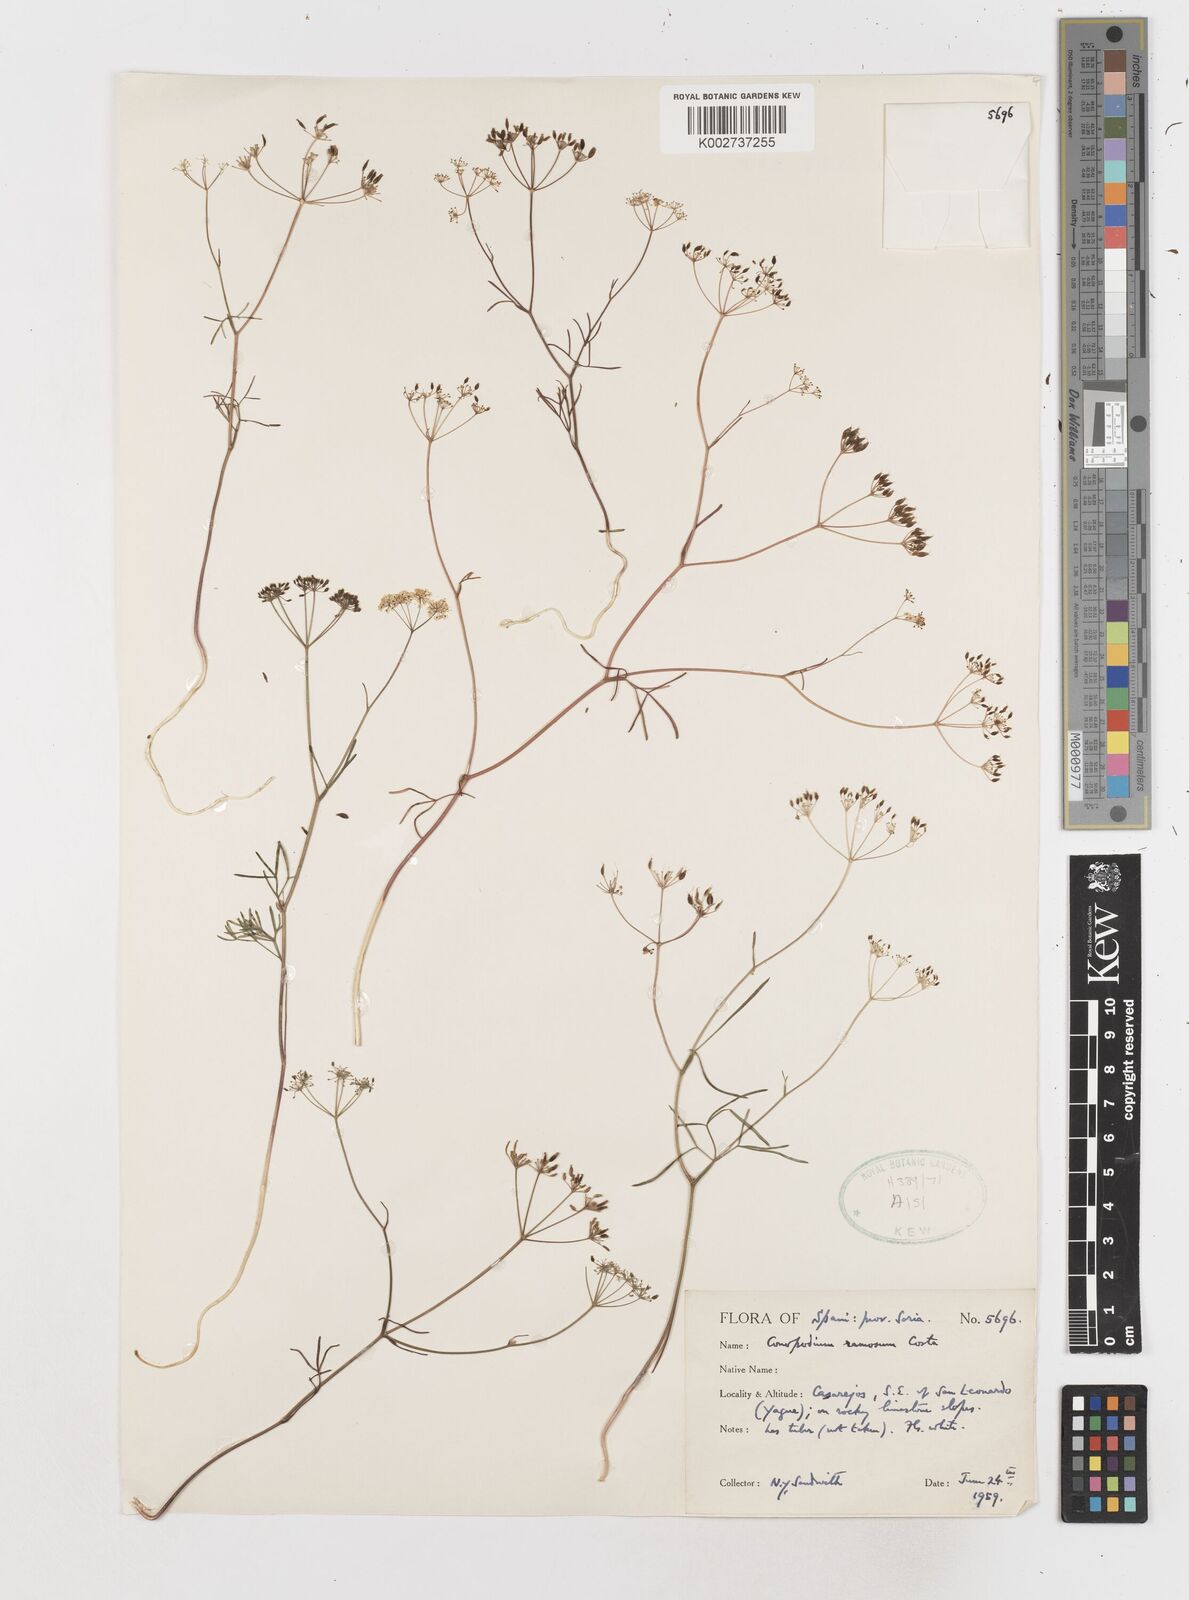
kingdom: Plantae
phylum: Tracheophyta
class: Magnoliopsida
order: Apiales
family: Apiaceae
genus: Conopodium
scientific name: Conopodium arvense
